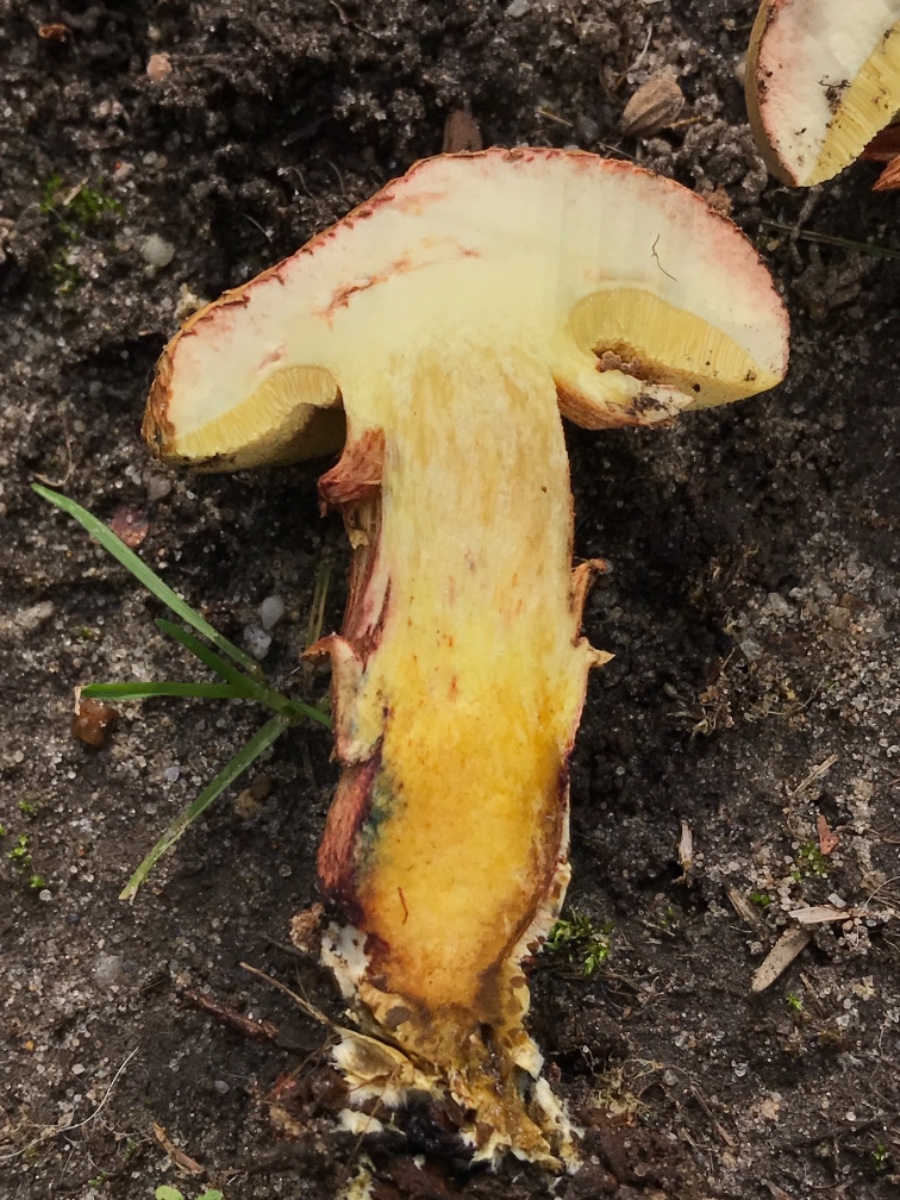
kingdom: Fungi
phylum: Basidiomycota
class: Agaricomycetes
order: Boletales
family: Boletaceae
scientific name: Boletaceae
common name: rørhatfamilien
